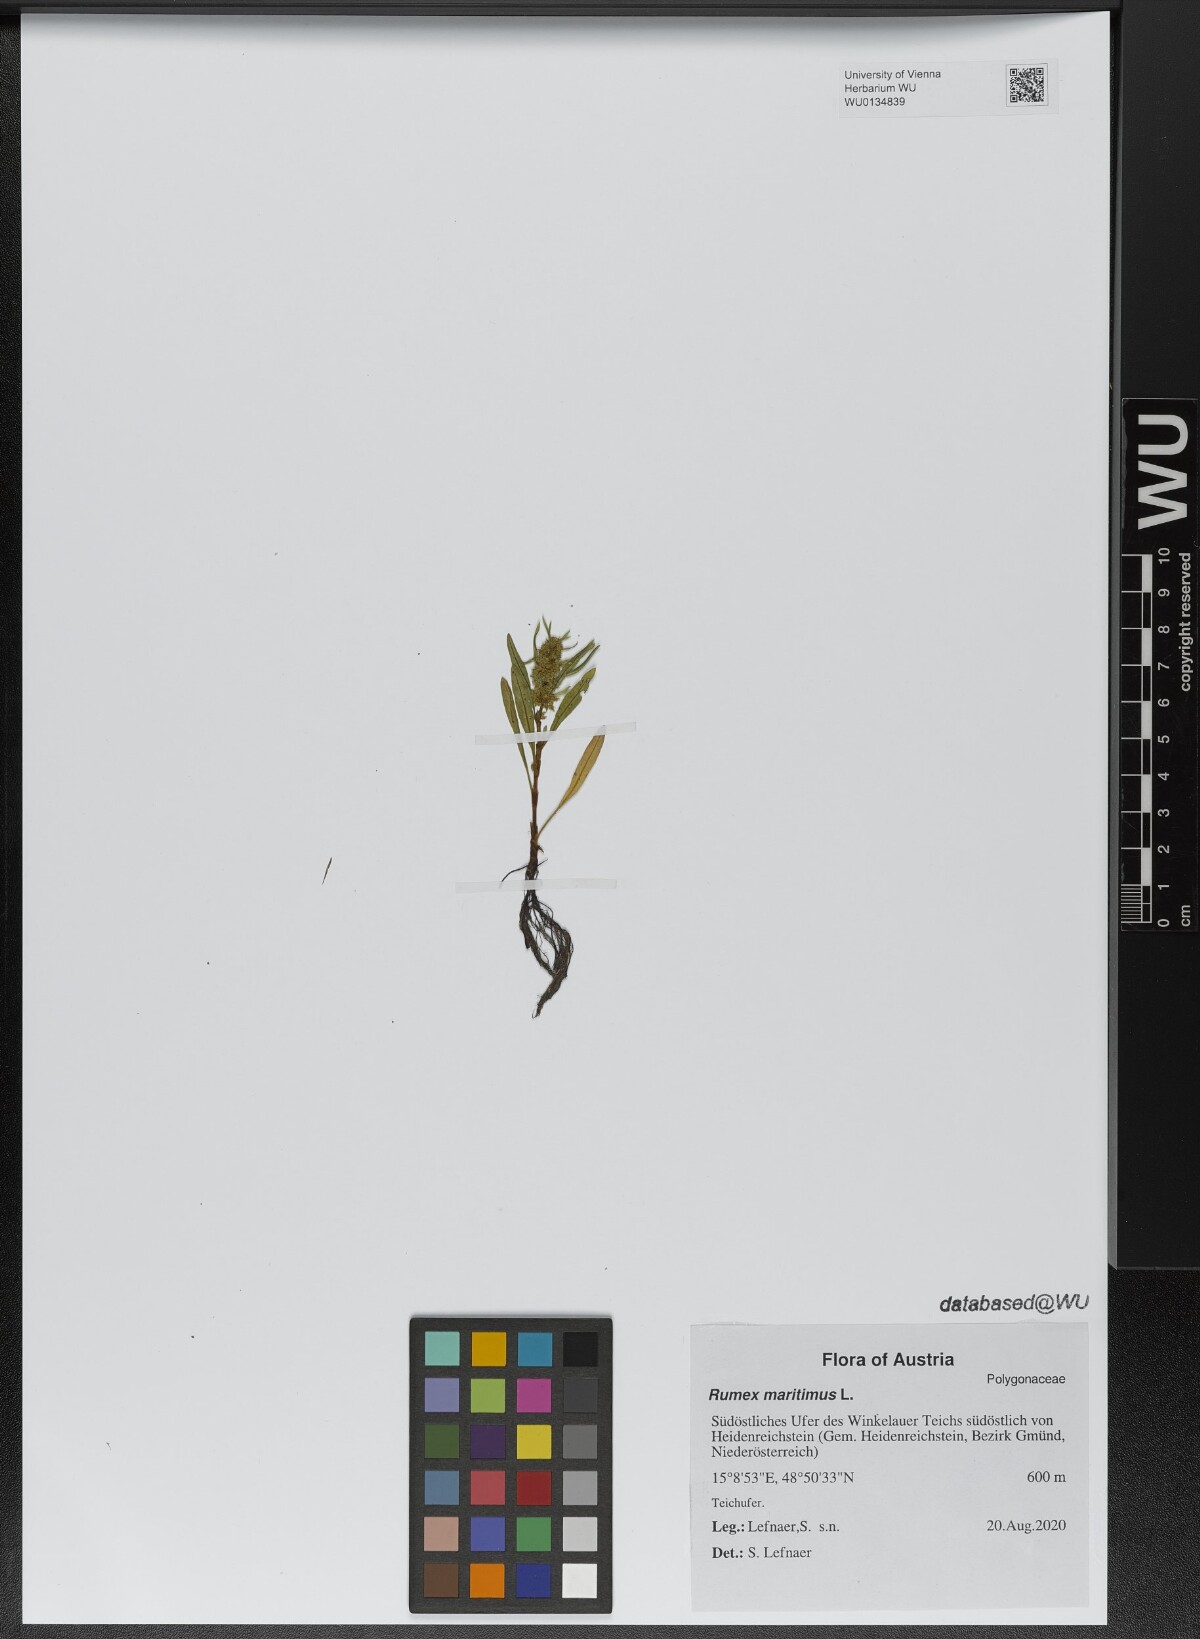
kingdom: Plantae
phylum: Tracheophyta
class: Magnoliopsida
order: Caryophyllales
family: Polygonaceae
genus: Rumex
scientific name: Rumex maritimus
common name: Golden dock
